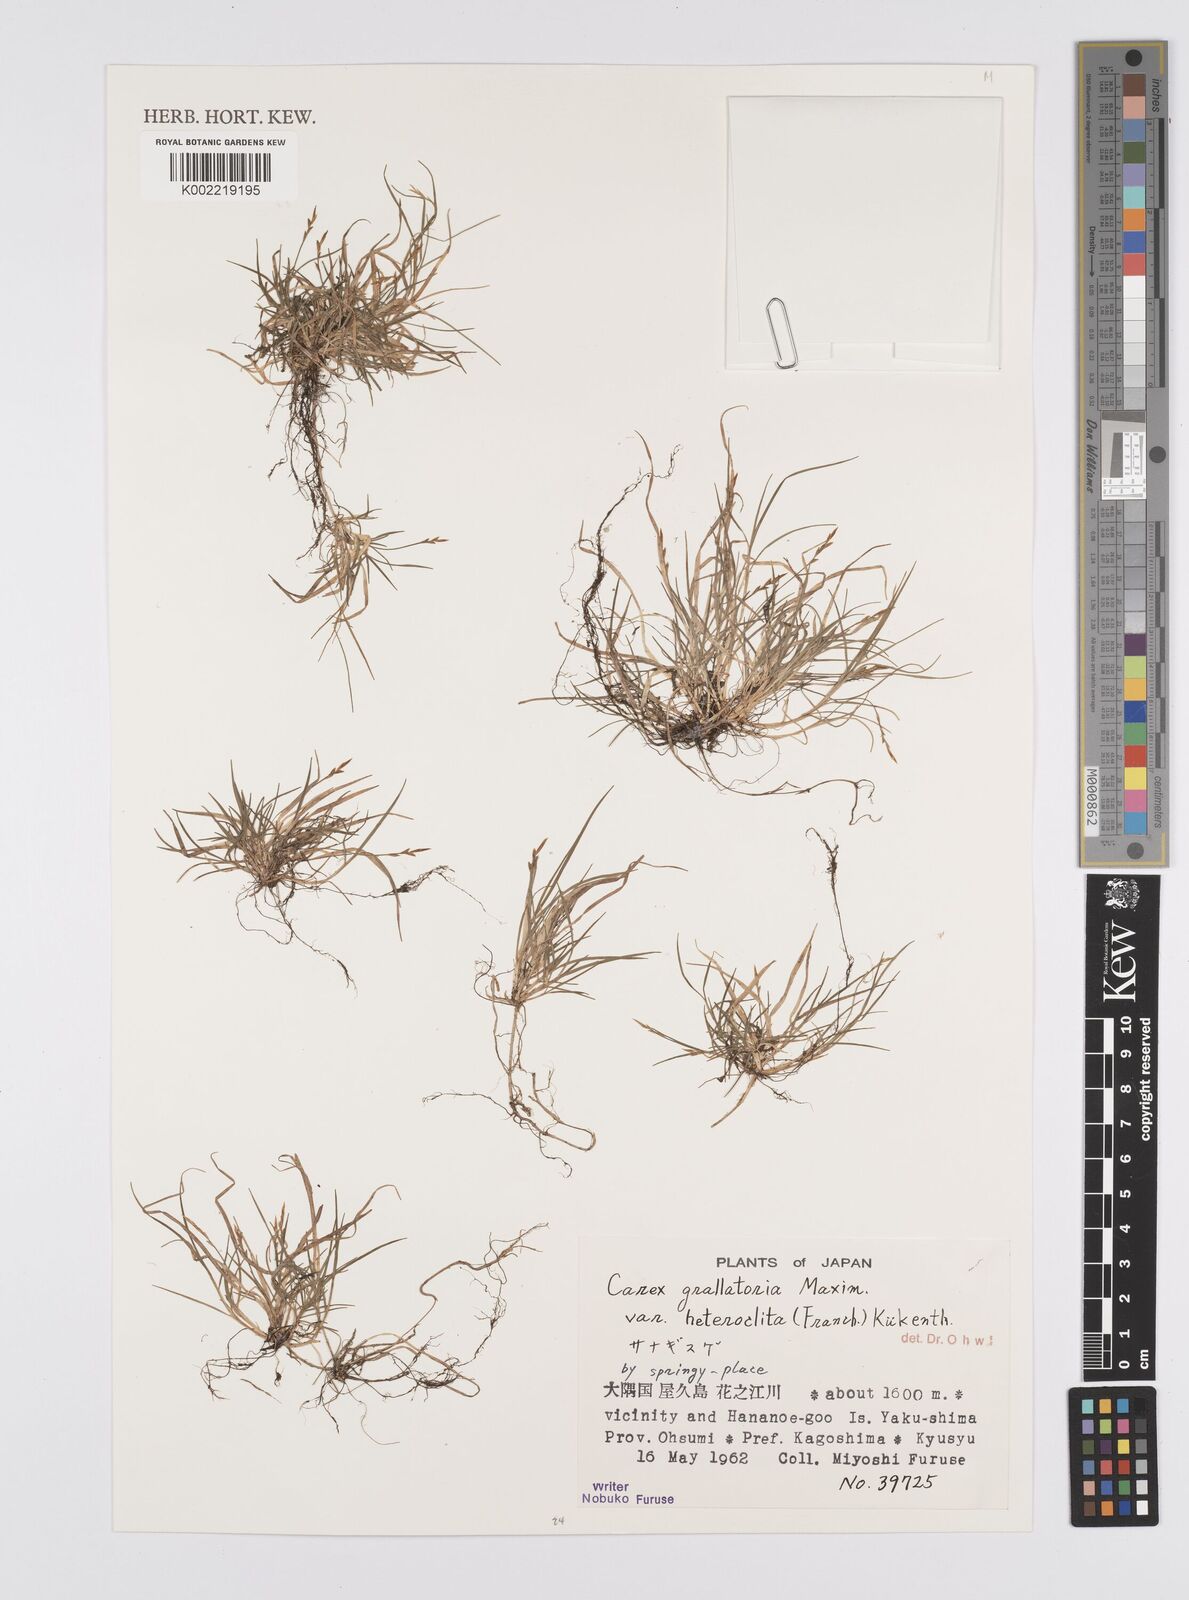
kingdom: Plantae
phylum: Tracheophyta
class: Liliopsida
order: Poales
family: Cyperaceae
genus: Carex
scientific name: Carex grallatoria
